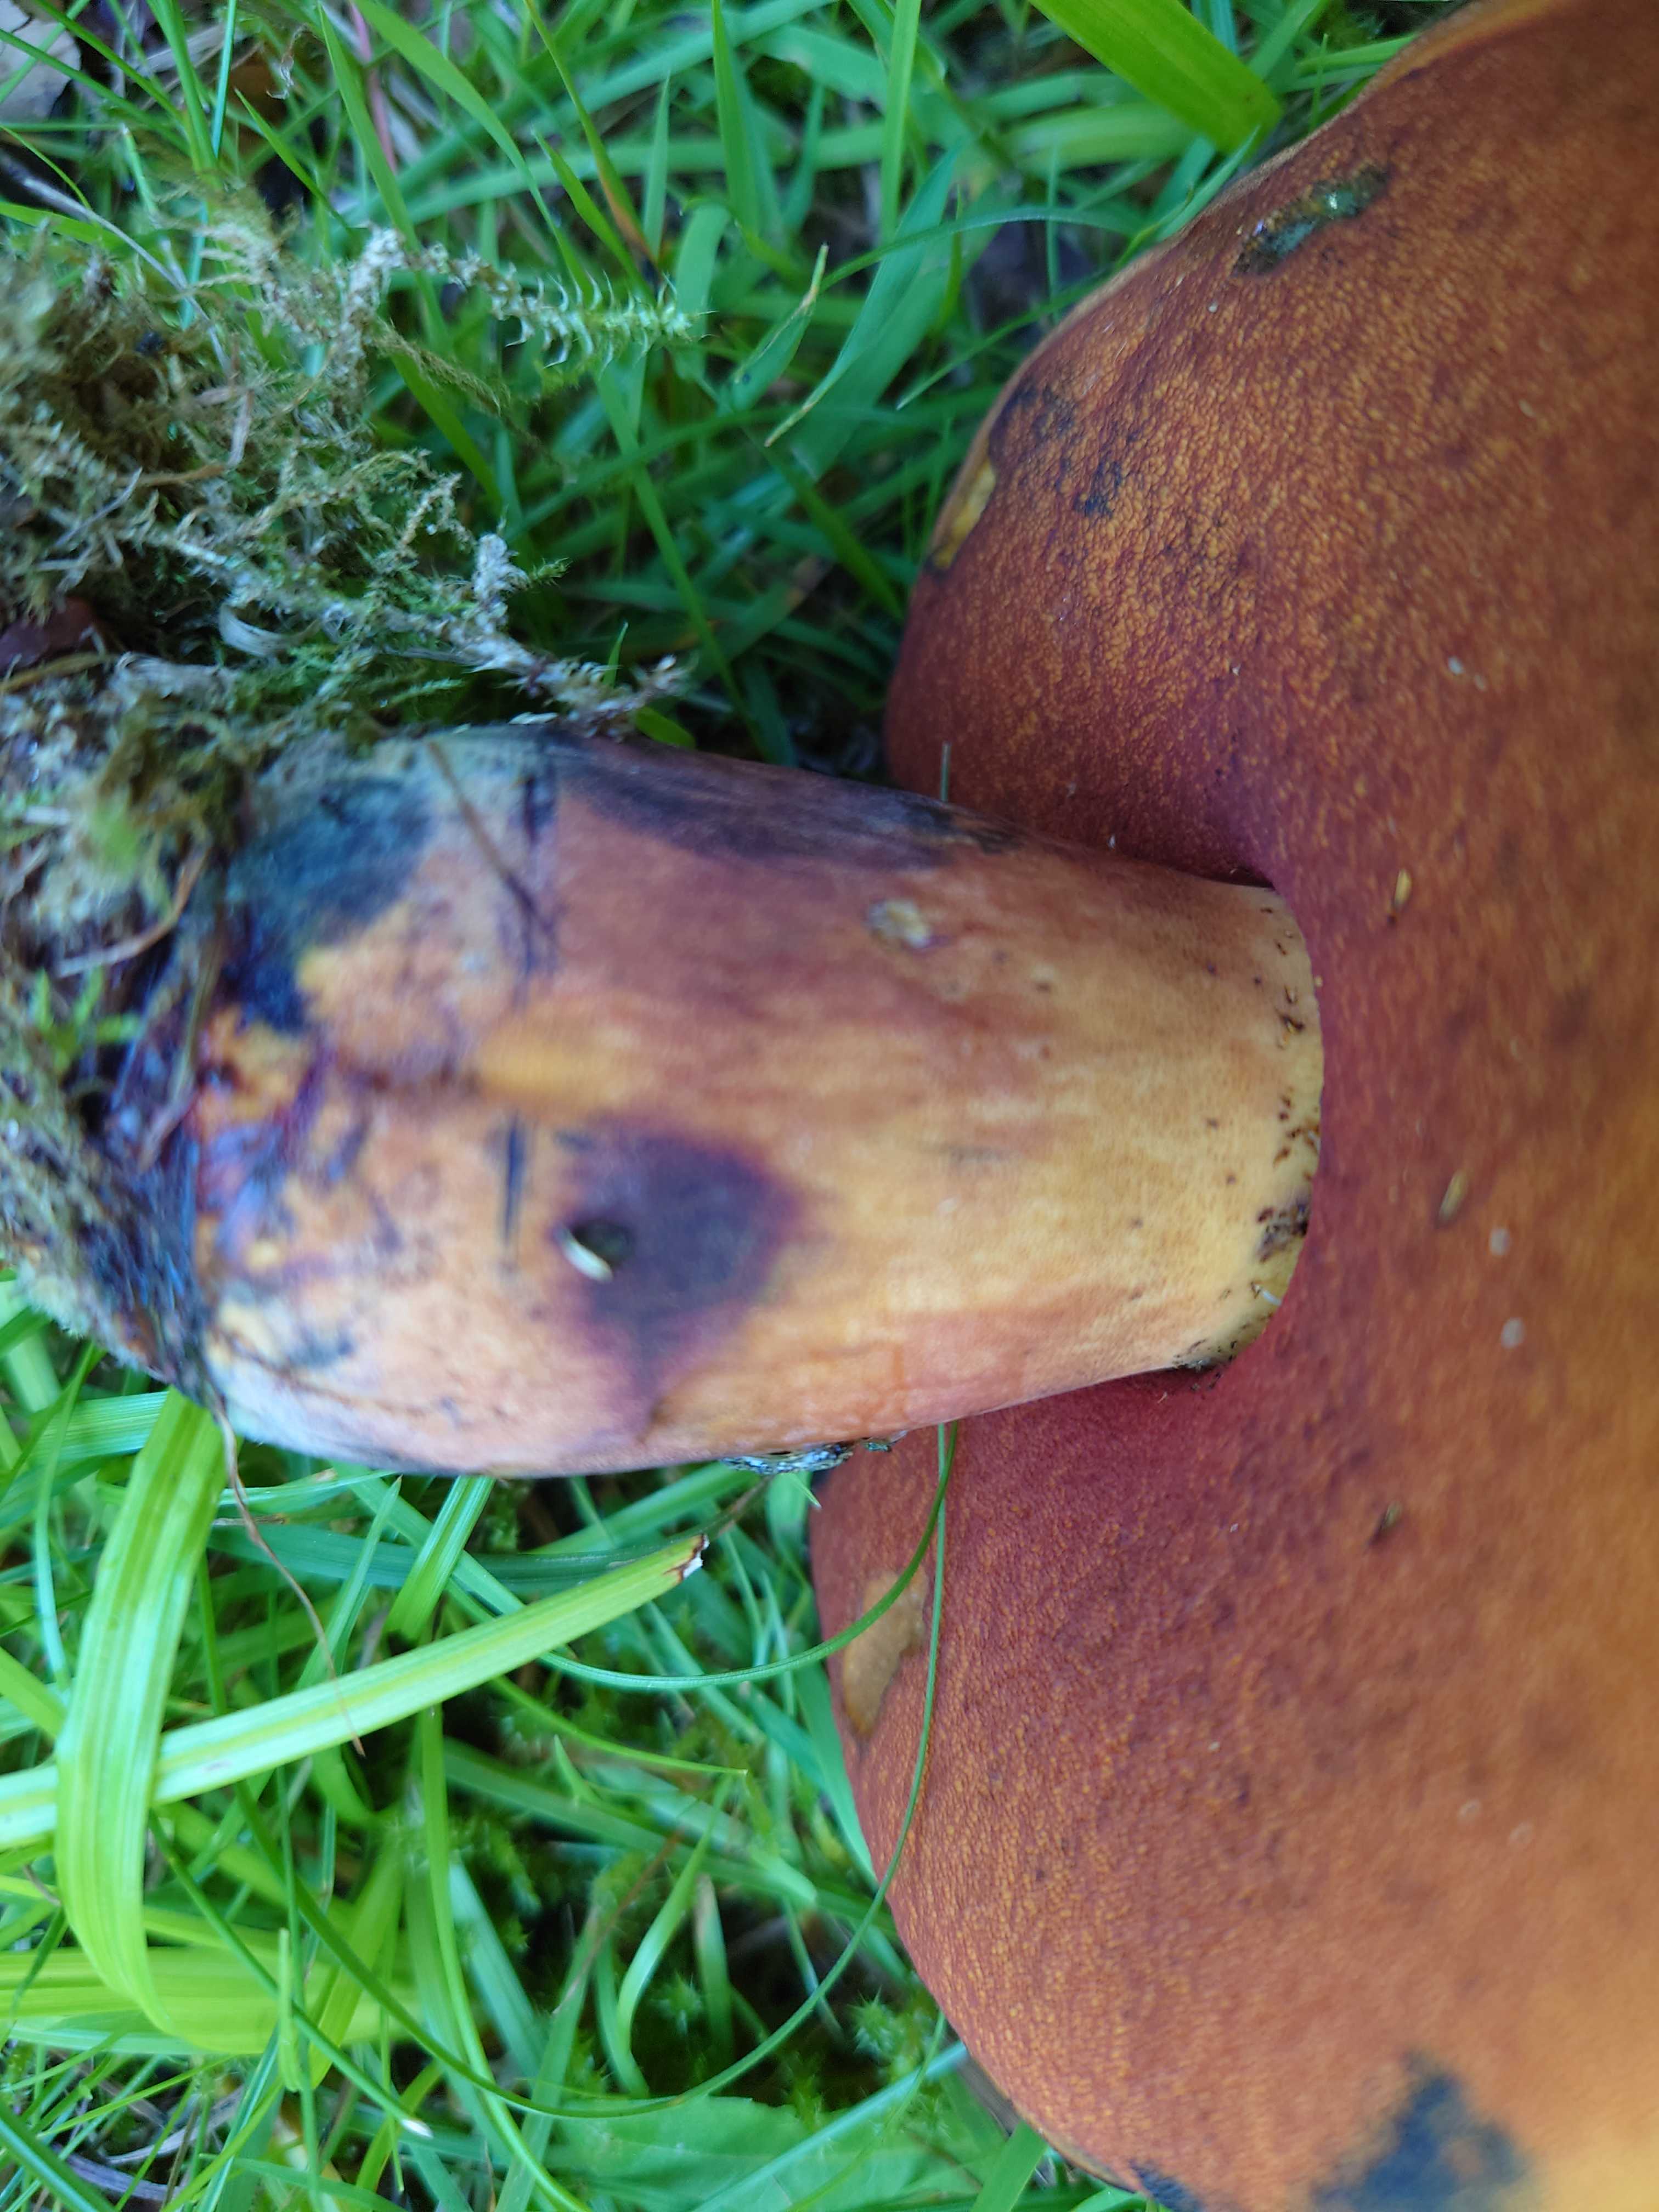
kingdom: Fungi
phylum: Basidiomycota
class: Agaricomycetes
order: Boletales
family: Boletaceae
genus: Neoboletus
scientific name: Neoboletus xanthopus
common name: finprikket indigorørhat
